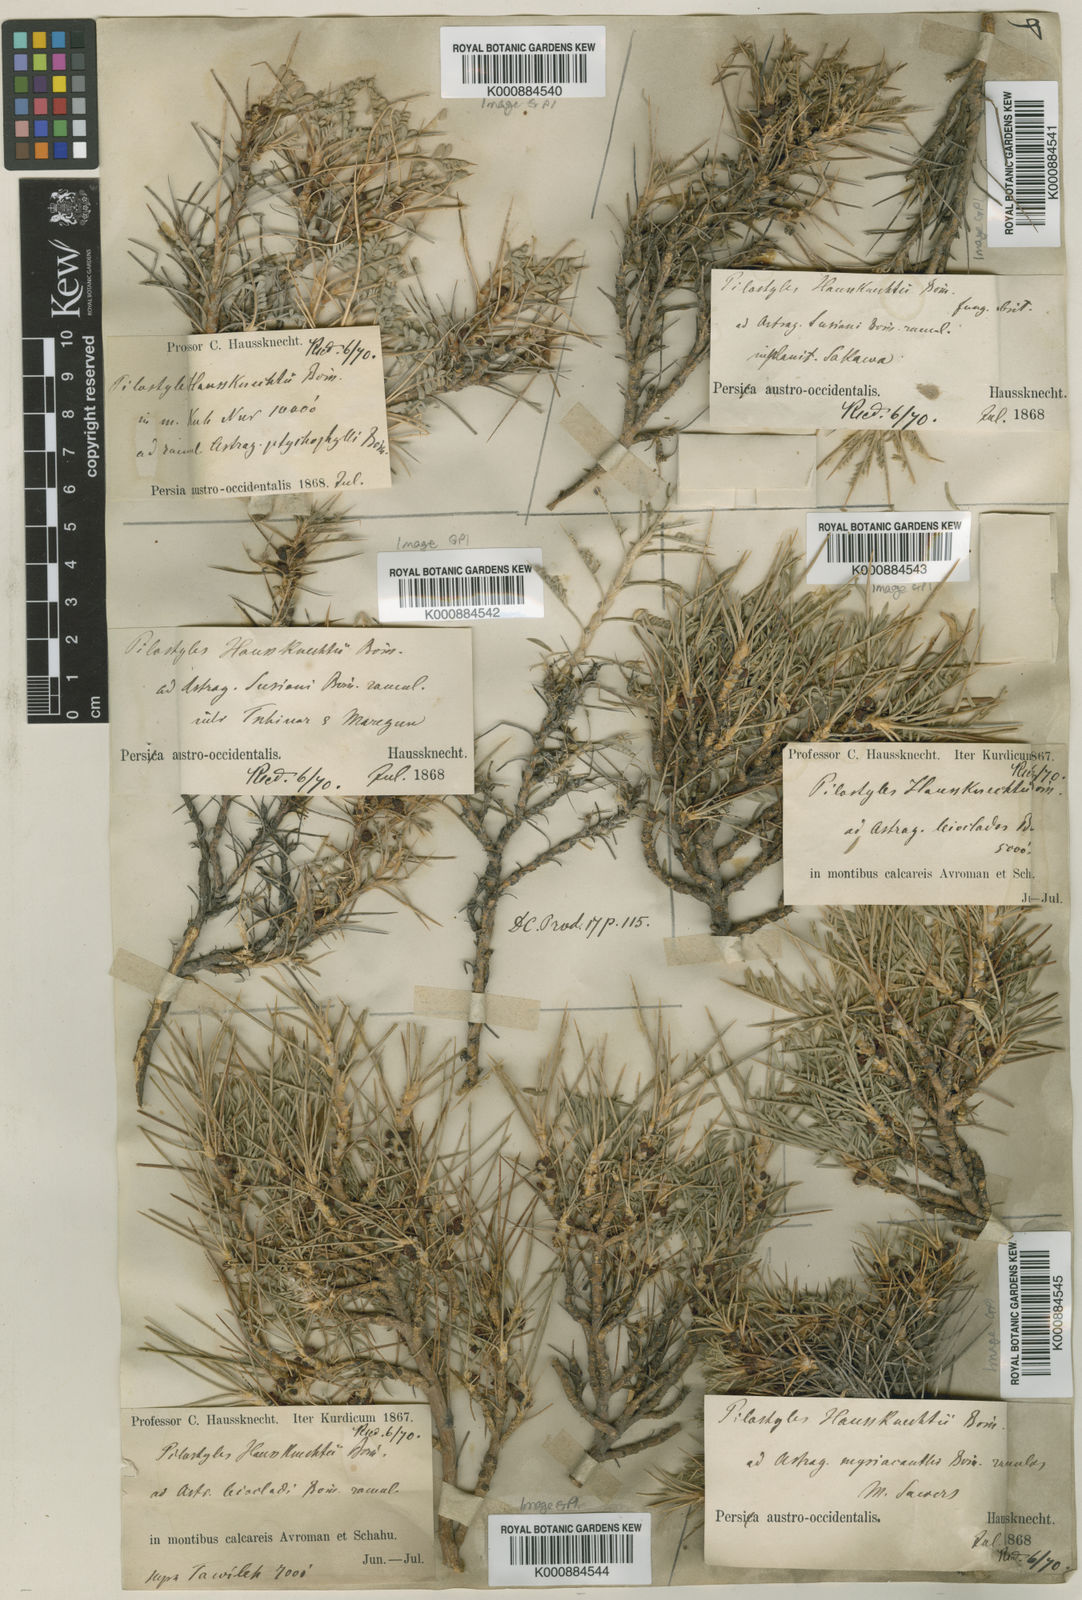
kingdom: Plantae
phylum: Tracheophyta
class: Magnoliopsida
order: Cucurbitales
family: Apodanthaceae
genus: Pilostyles
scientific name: Pilostyles haussknechtii
